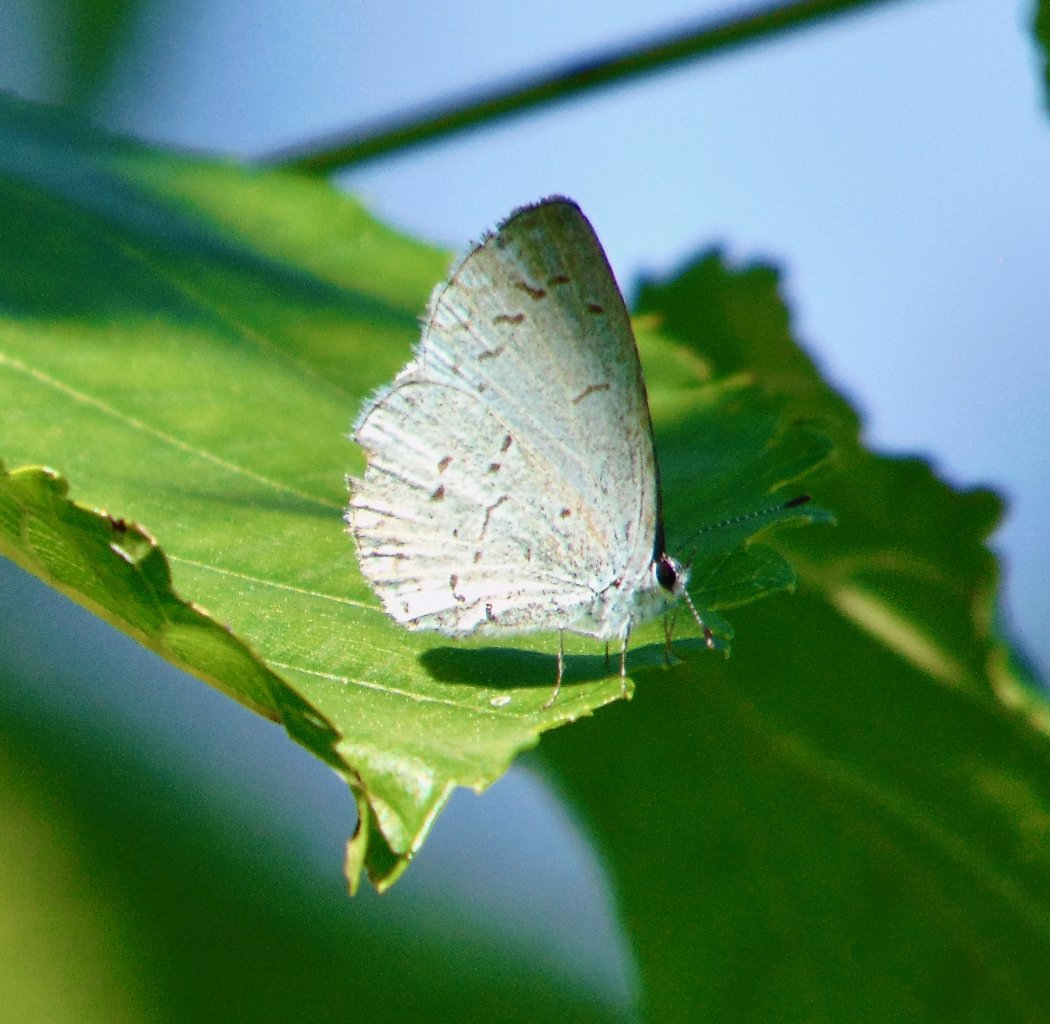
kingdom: Animalia
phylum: Arthropoda
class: Insecta
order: Lepidoptera
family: Lycaenidae
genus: Cyaniris
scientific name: Cyaniris neglecta
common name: Summer Azure
